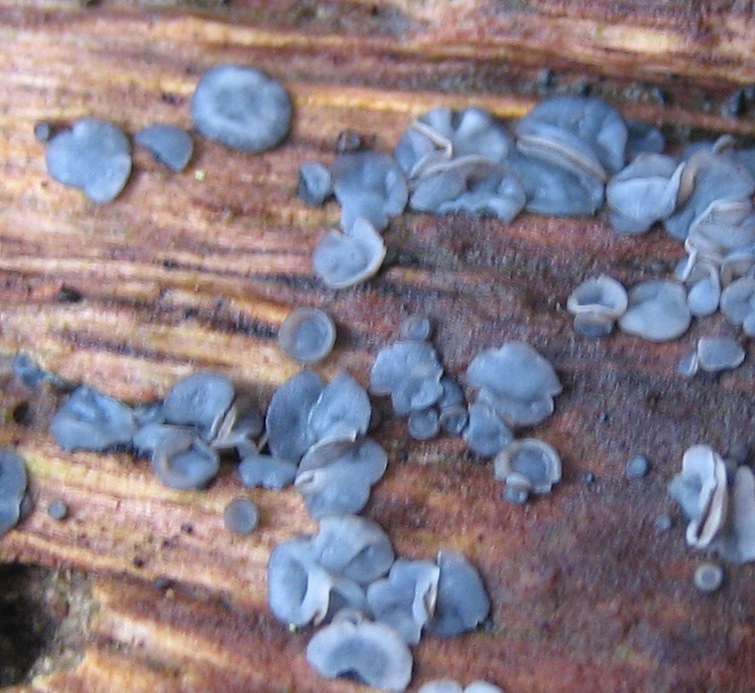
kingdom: Fungi
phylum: Ascomycota
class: Leotiomycetes
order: Helotiales
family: Mollisiaceae
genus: Mollisia
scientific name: Mollisia
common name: gråskive
